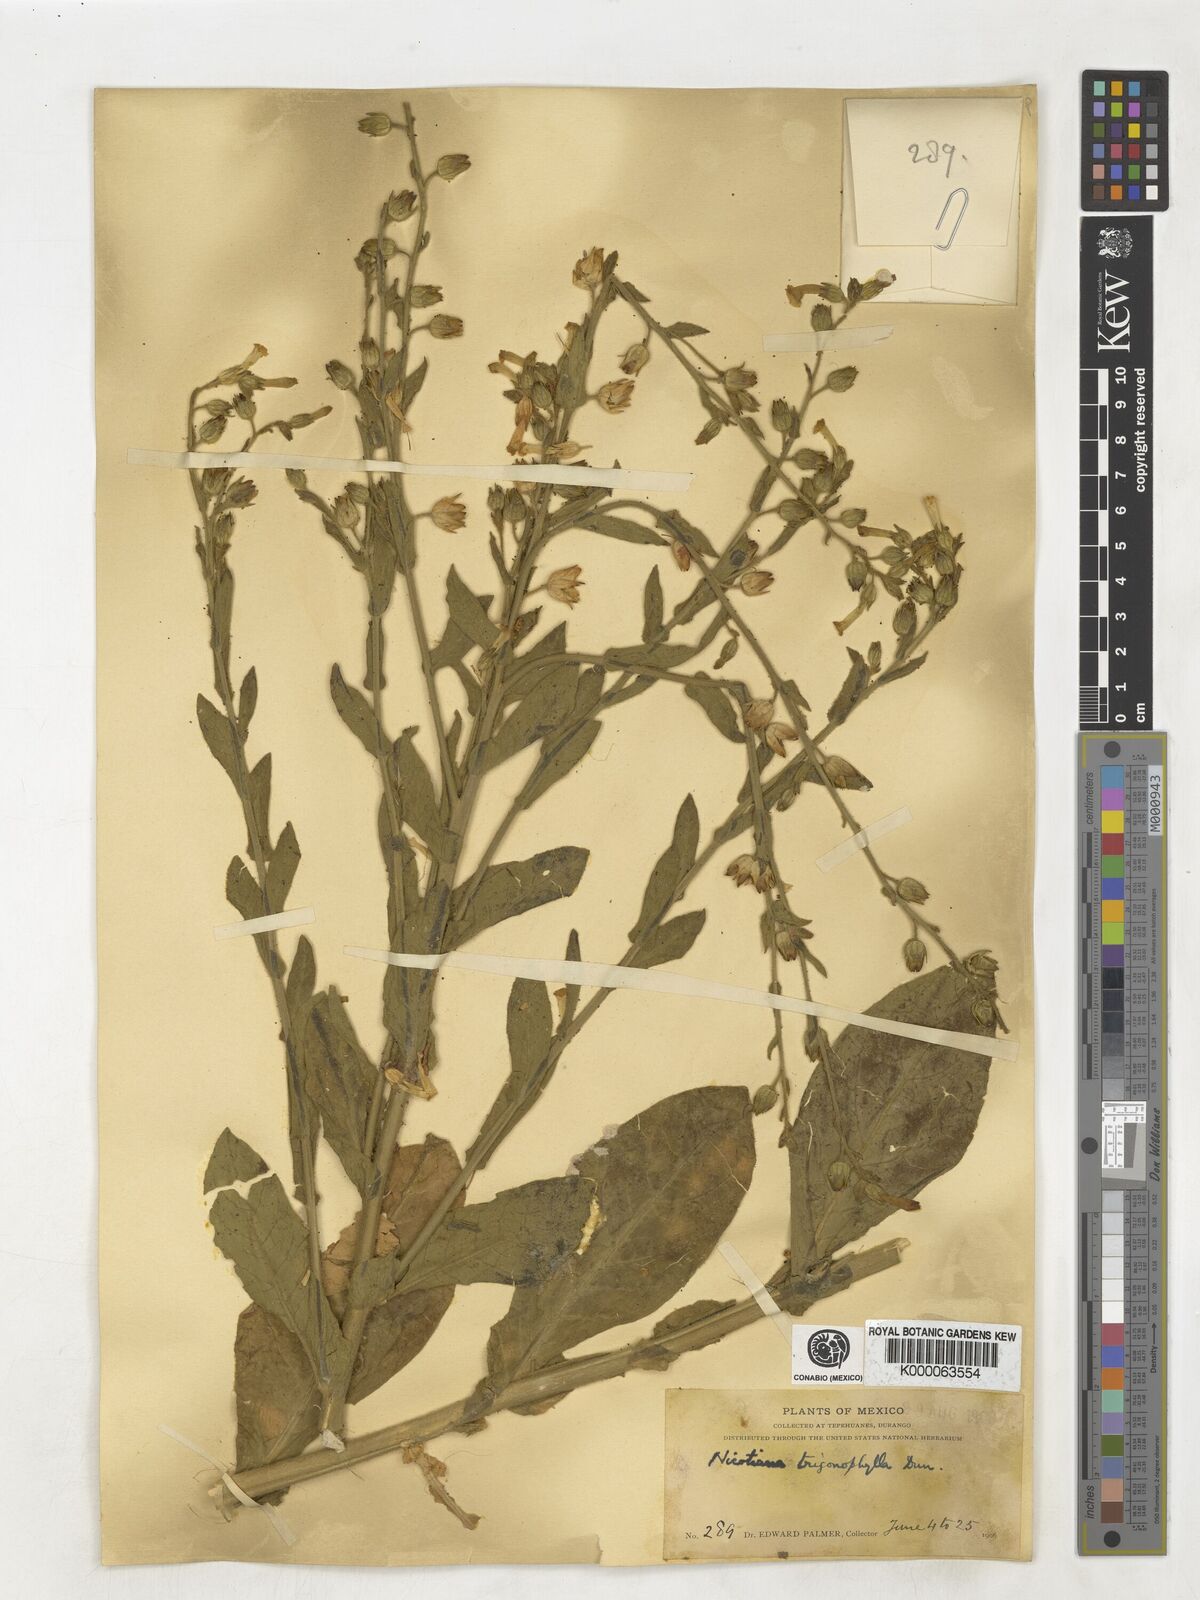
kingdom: Plantae
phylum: Tracheophyta
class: Magnoliopsida
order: Solanales
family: Solanaceae
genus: Nicotiana
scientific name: Nicotiana obtusifolia
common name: Desert tobacco
